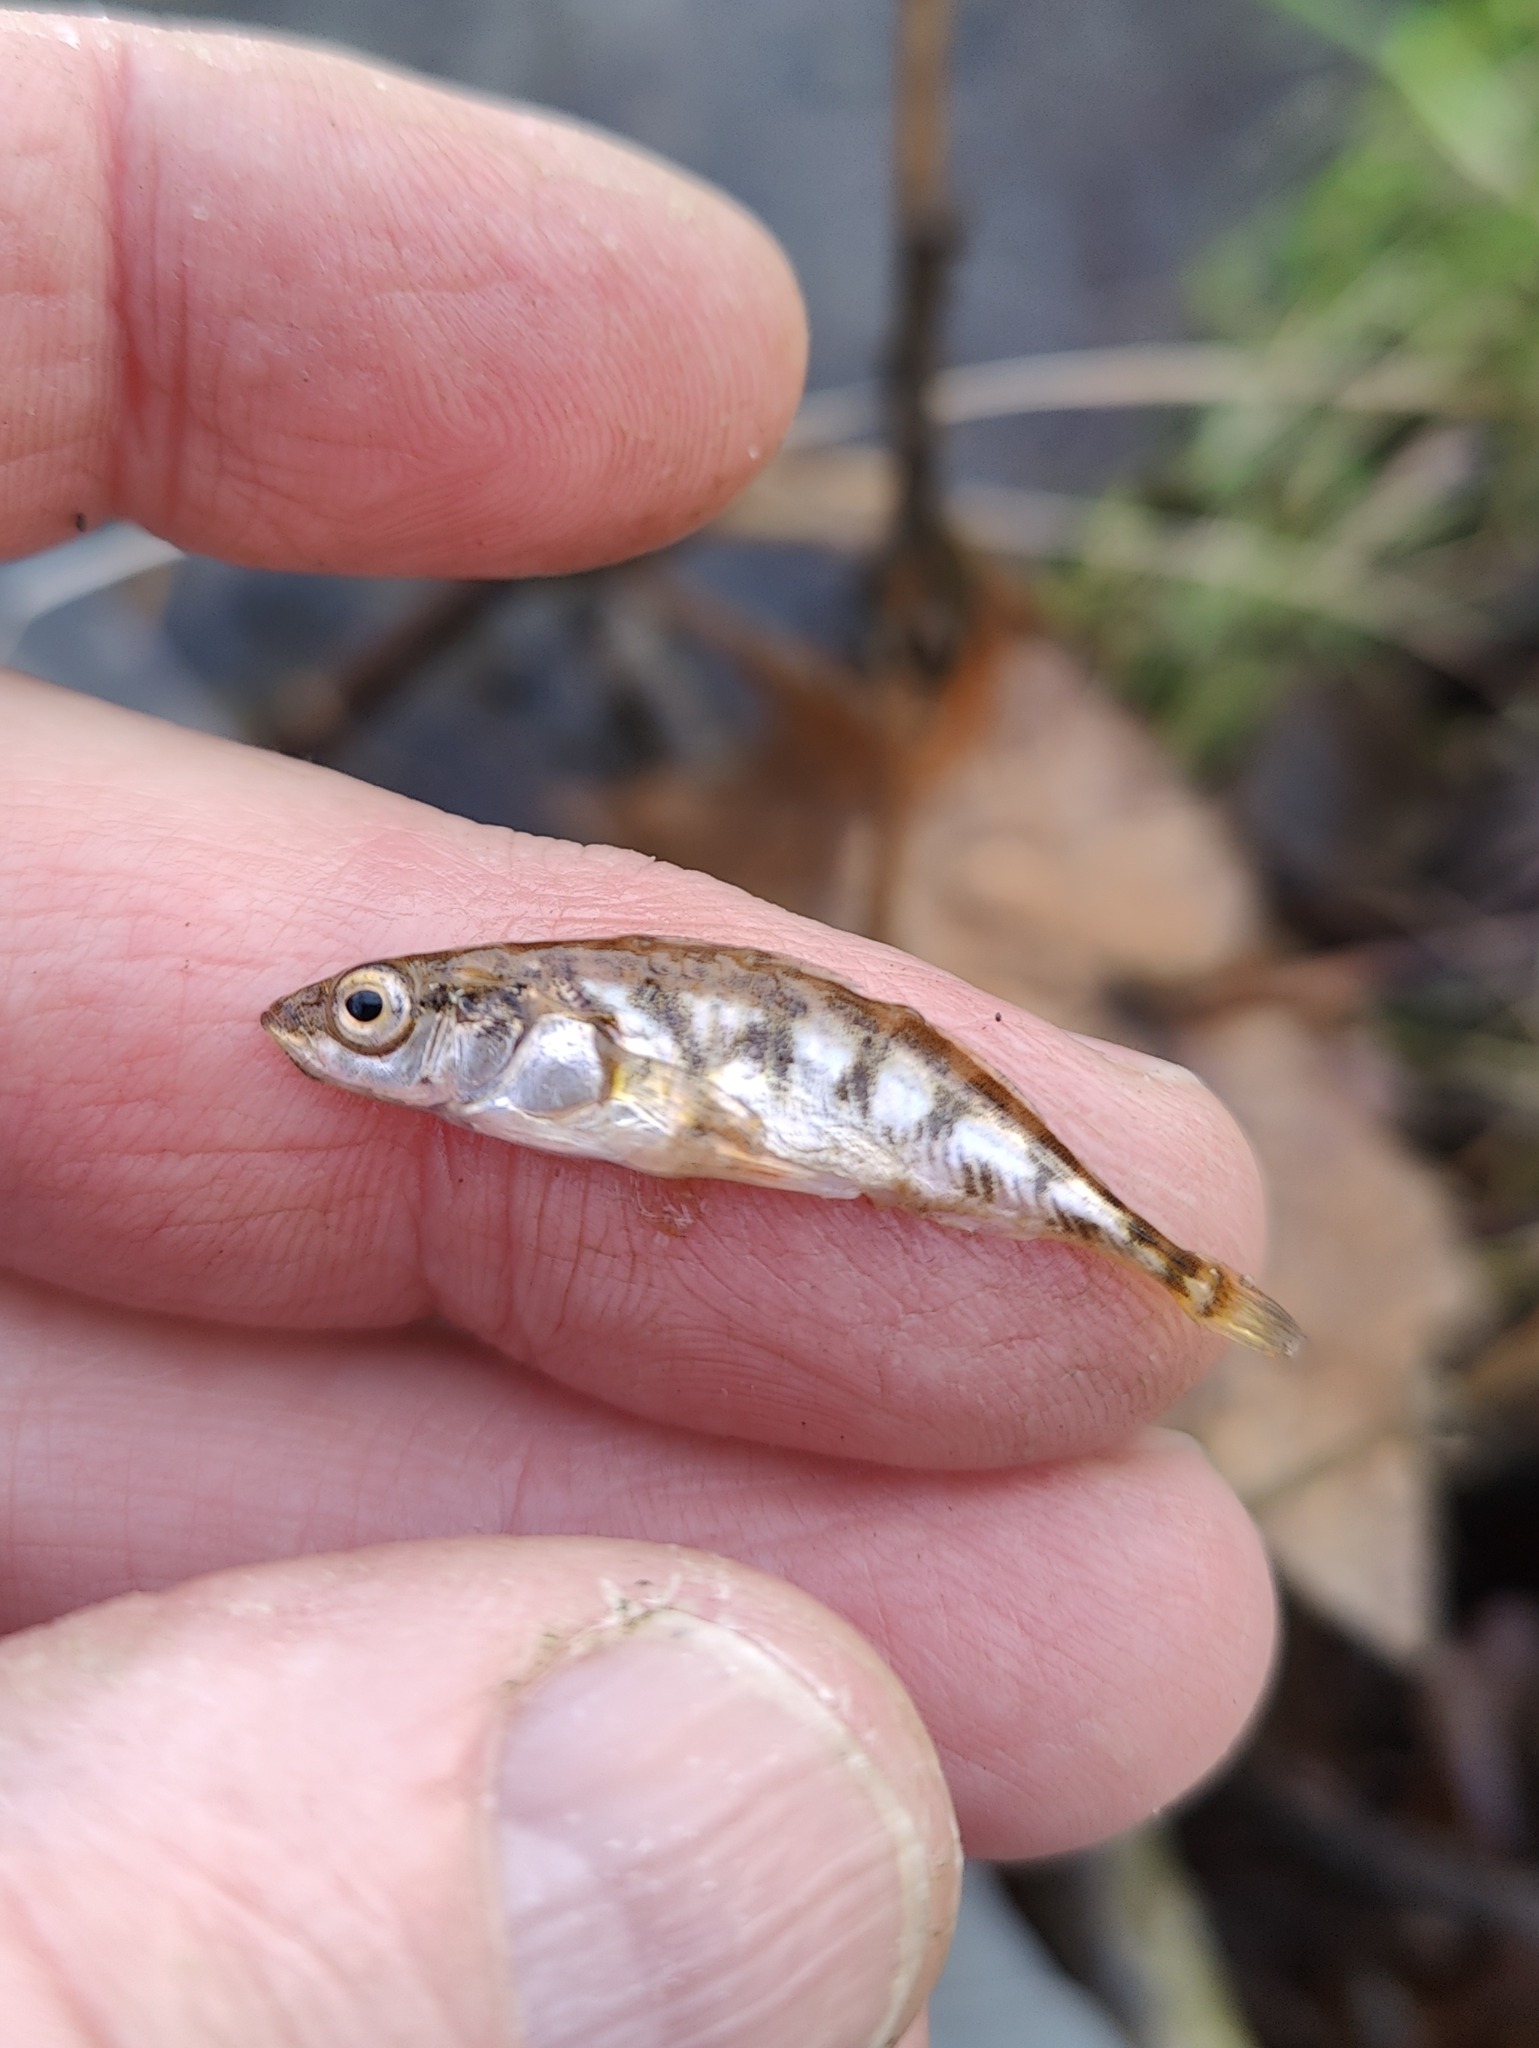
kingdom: Animalia
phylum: Chordata
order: Gasterosteiformes
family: Gasterosteidae
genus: Gasterosteus
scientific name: Gasterosteus aculeatus
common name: Trepigget hundestejle
